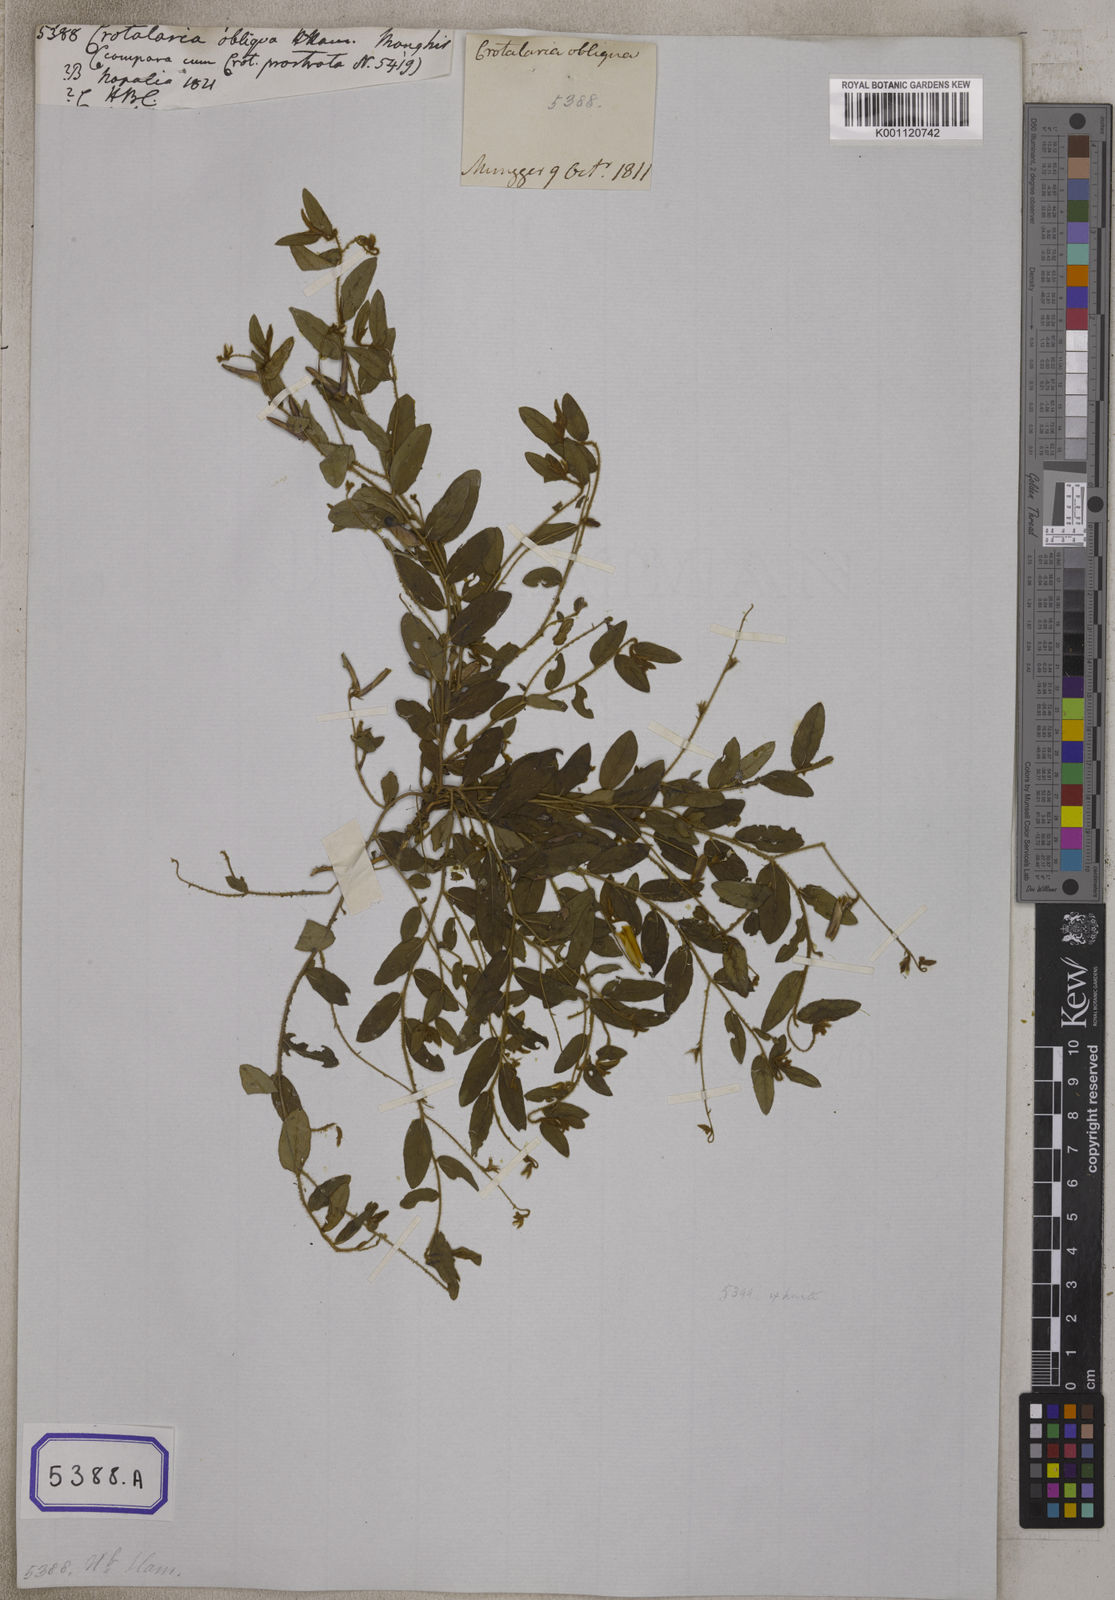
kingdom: Plantae
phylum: Tracheophyta
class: Magnoliopsida
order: Fabales
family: Fabaceae
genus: Crotalaria
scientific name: Crotalaria prostrata
